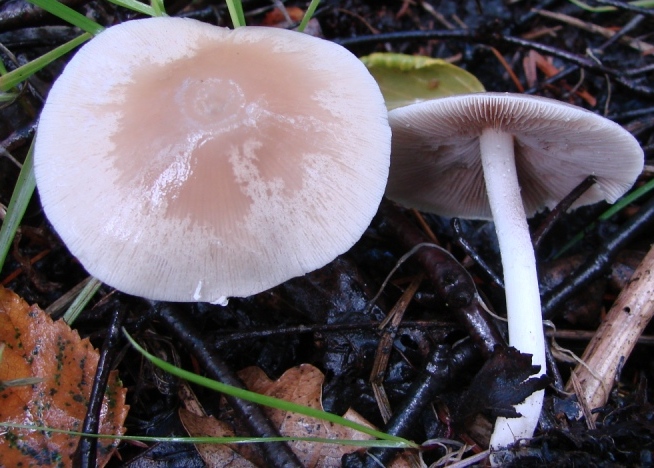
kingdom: Fungi
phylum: Basidiomycota
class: Agaricomycetes
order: Agaricales
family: Psathyrellaceae
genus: Candolleomyces
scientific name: Candolleomyces candolleanus
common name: Candolles mørkhat
